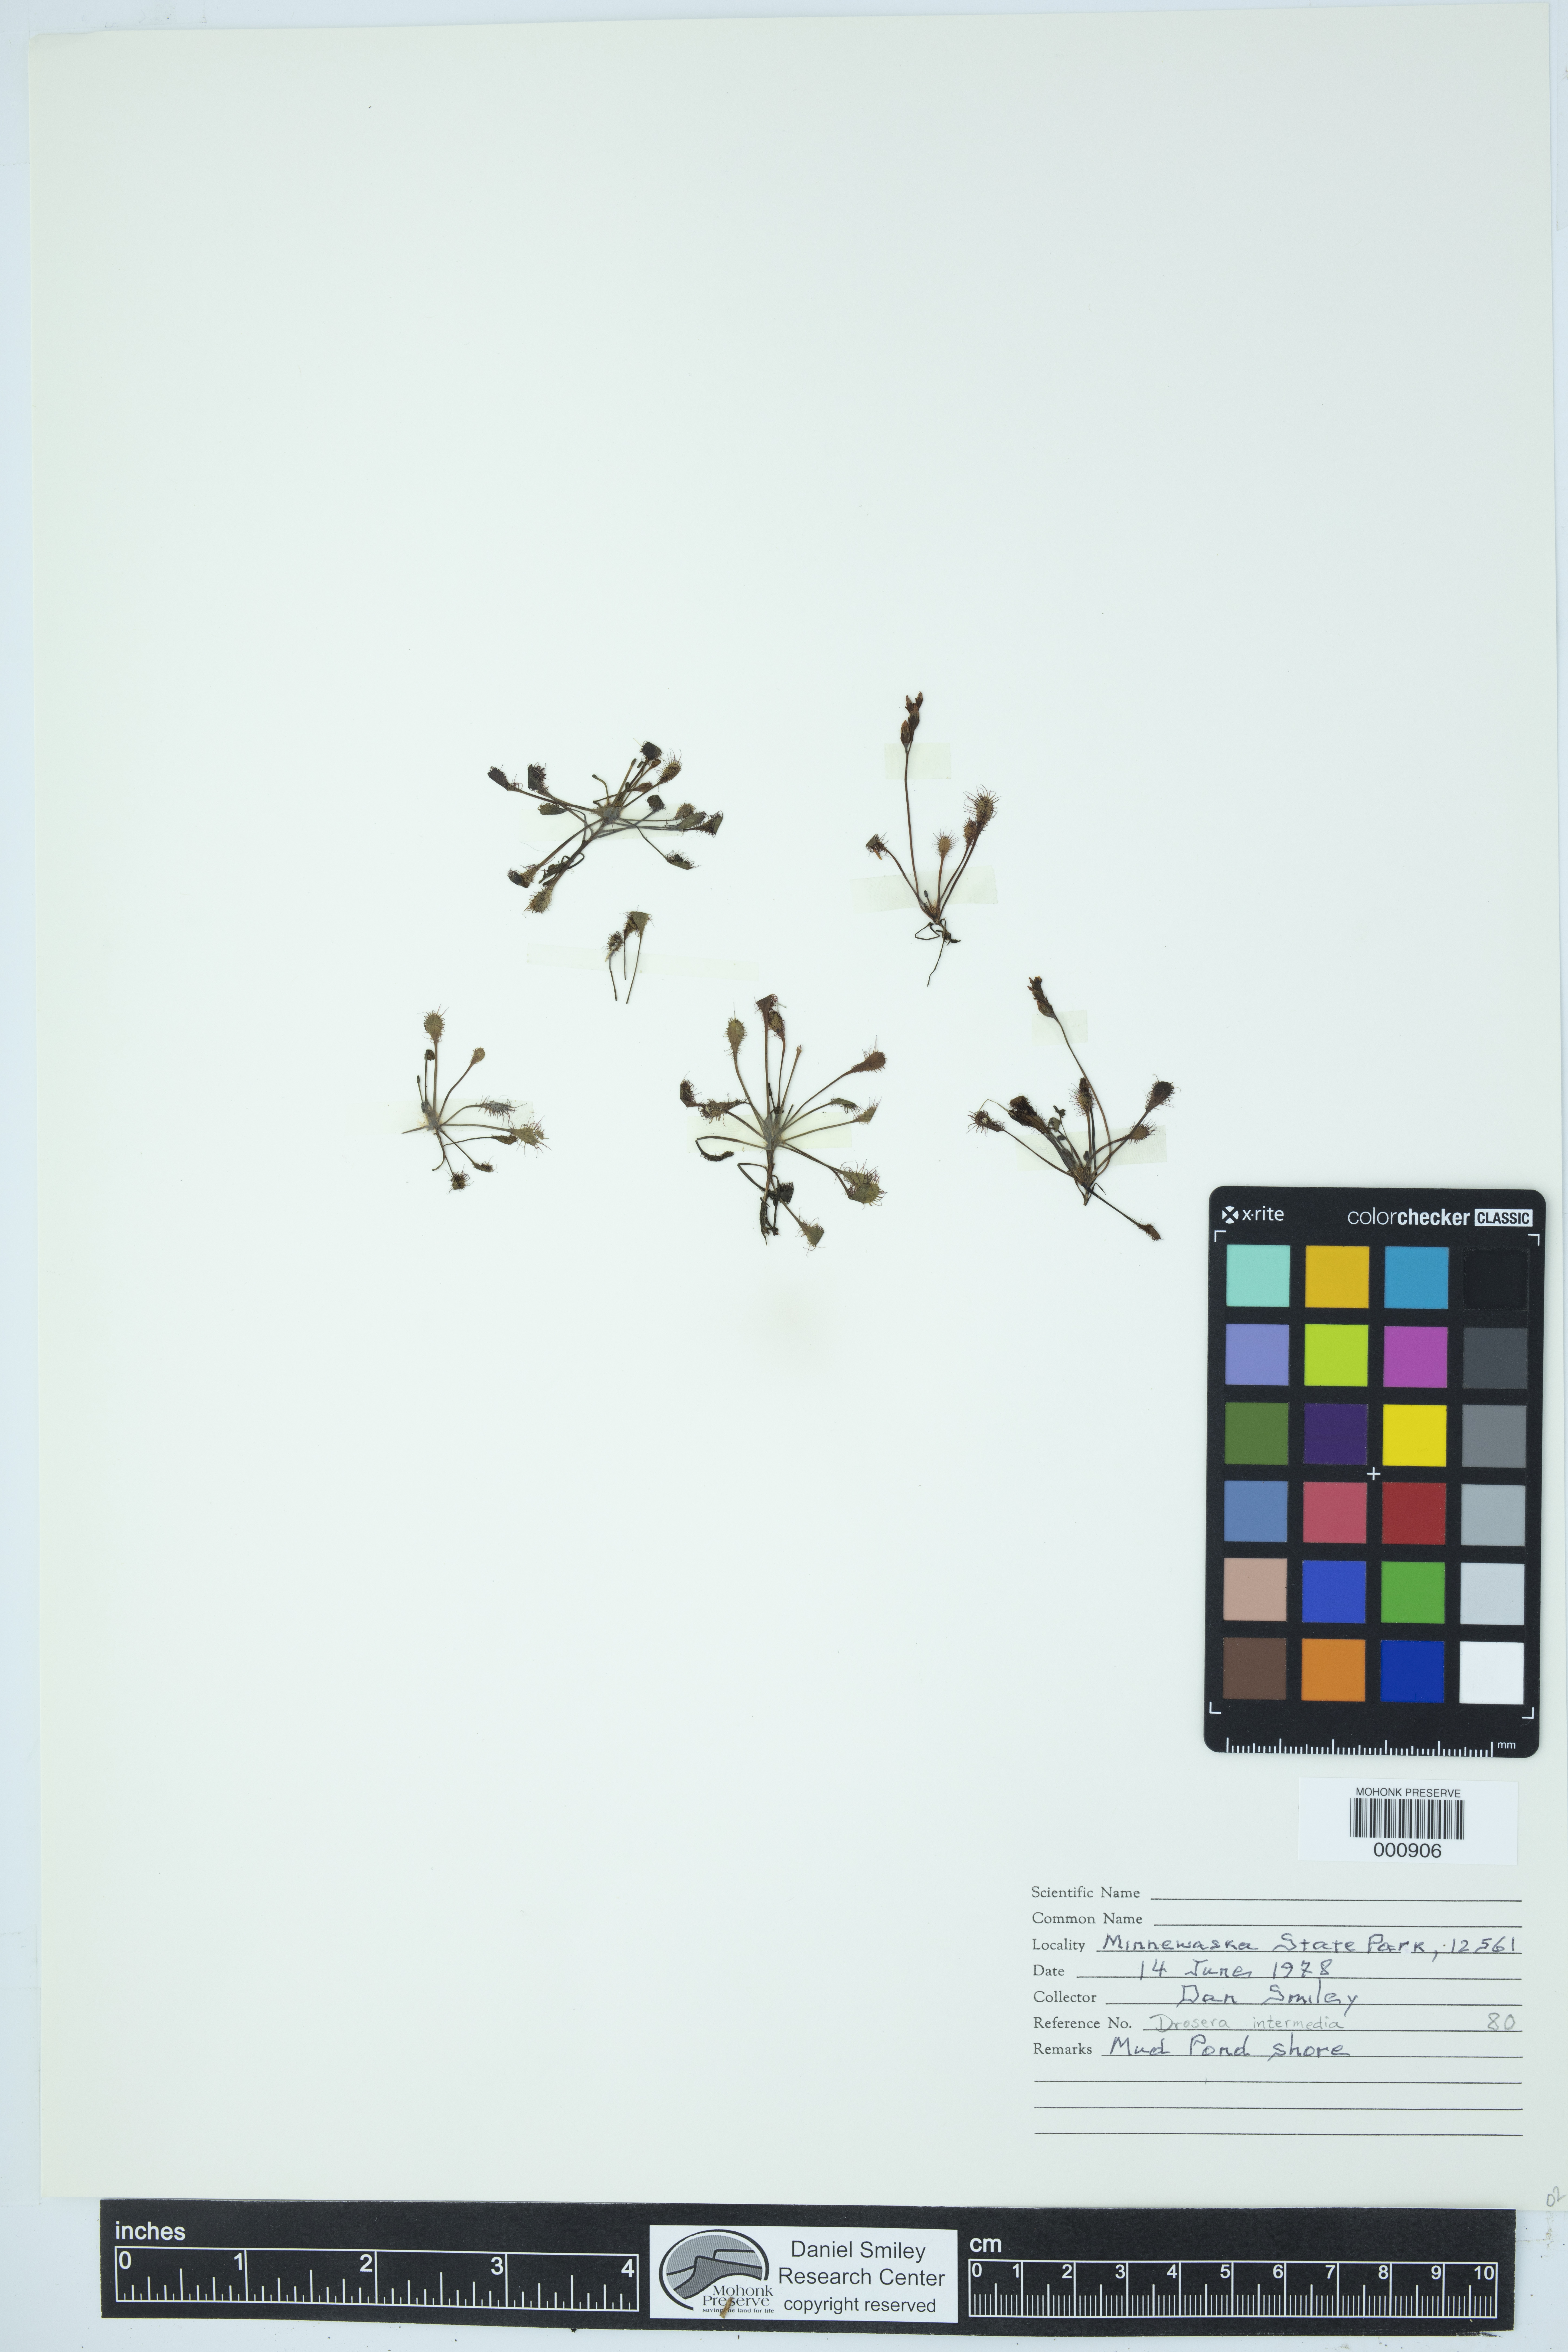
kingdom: Plantae
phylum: Tracheophyta
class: Magnoliopsida
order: Caryophyllales
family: Droseraceae
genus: Drosera
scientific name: Drosera intermedia
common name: Oblong-leaved sundew
